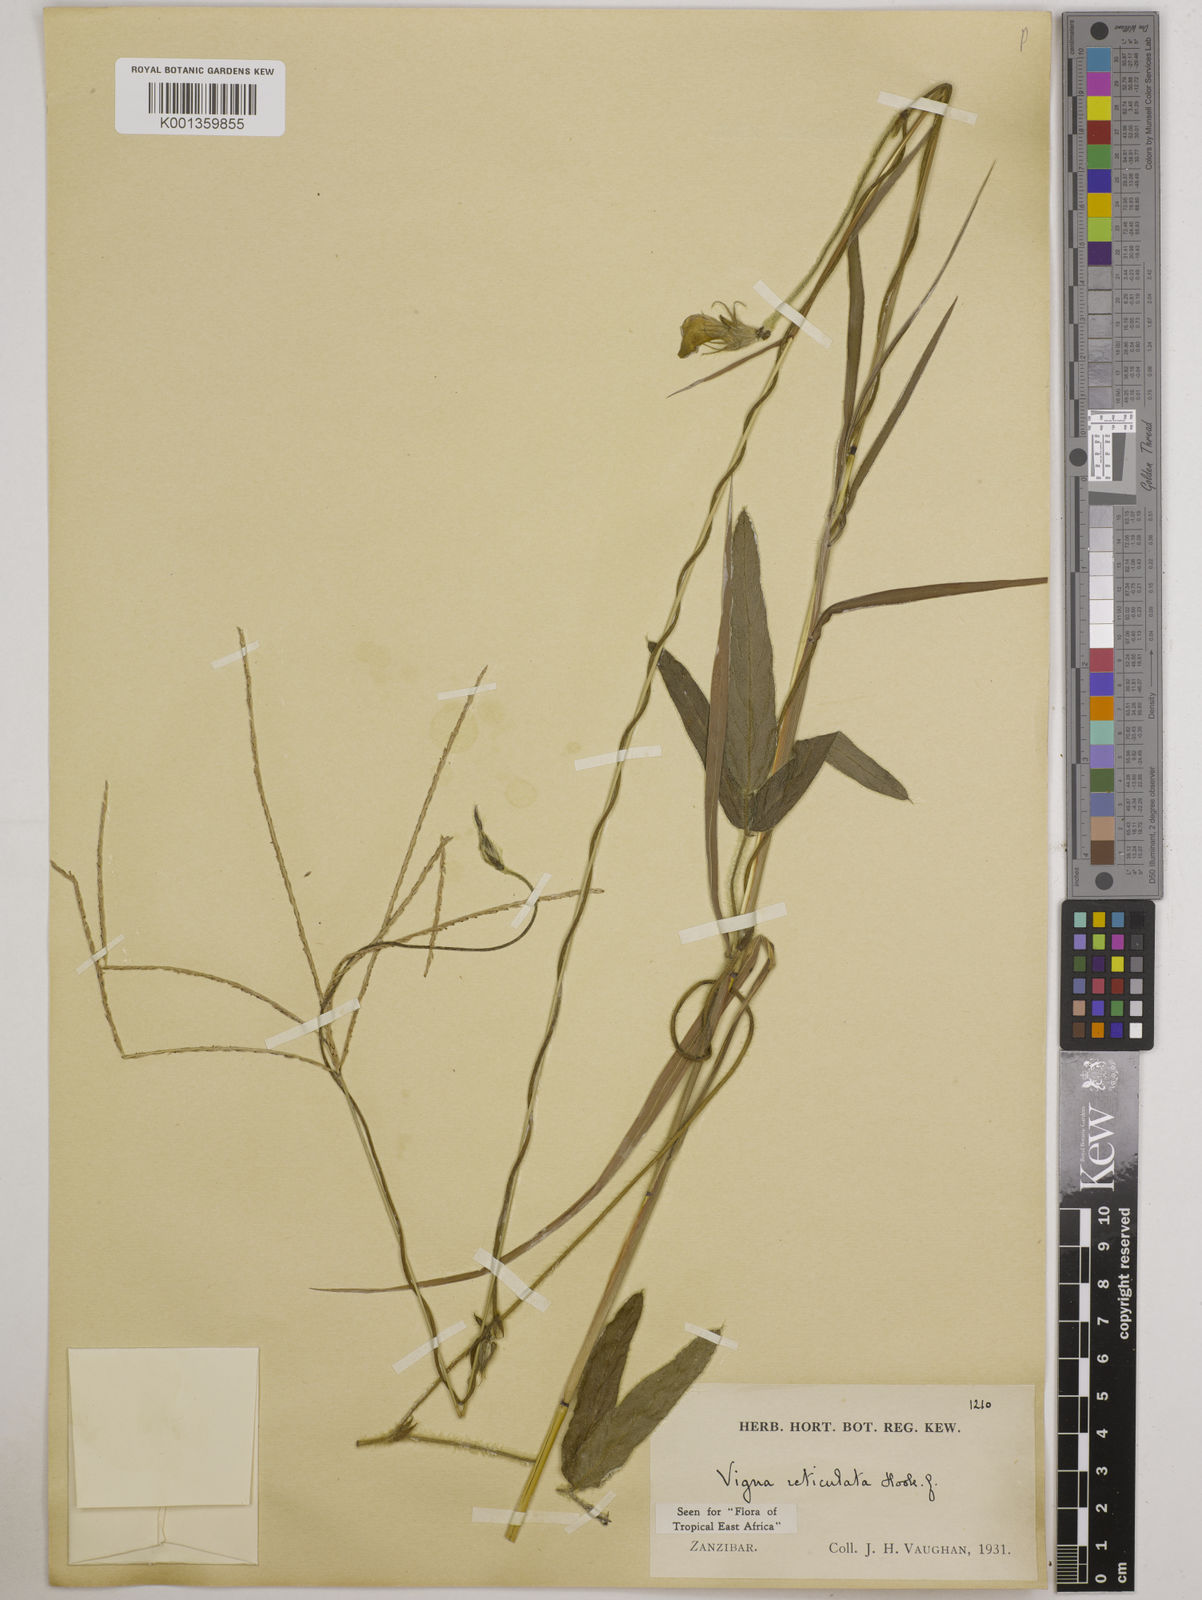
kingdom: Plantae
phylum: Tracheophyta
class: Magnoliopsida
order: Fabales
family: Fabaceae
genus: Vigna
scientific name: Vigna reticulata
